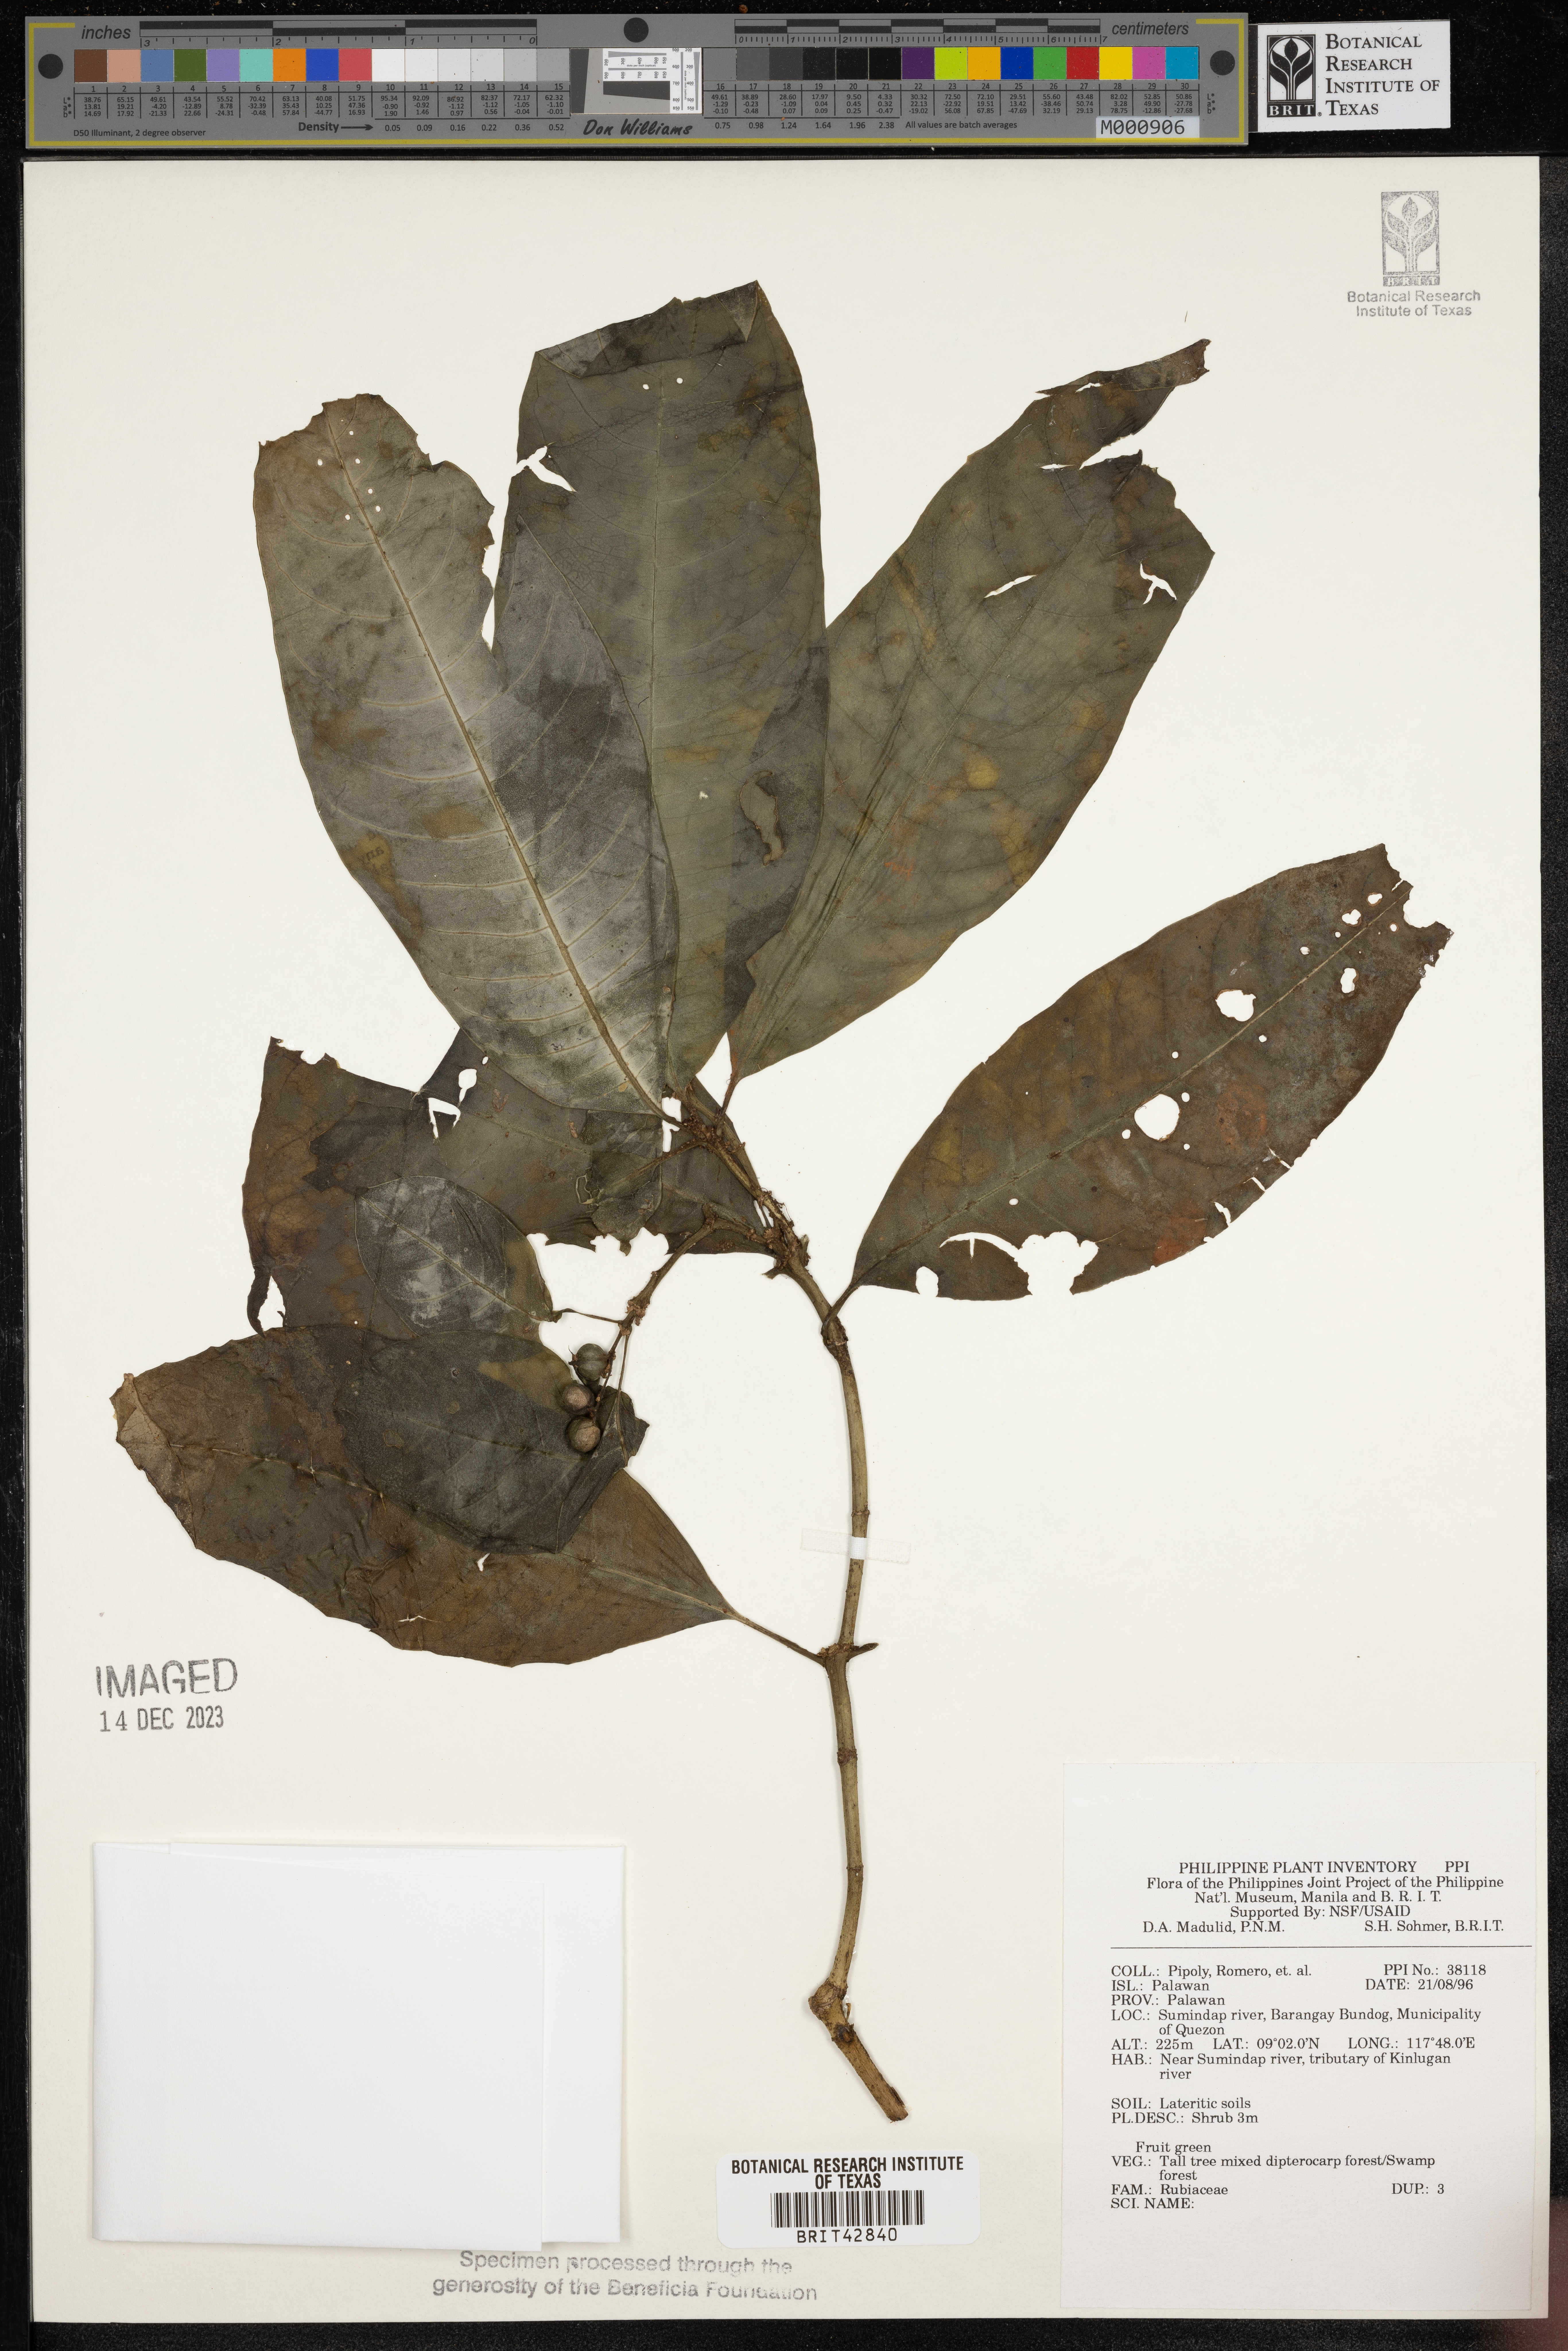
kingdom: Plantae
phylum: Tracheophyta
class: Magnoliopsida
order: Gentianales
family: Rubiaceae
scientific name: Rubiaceae
